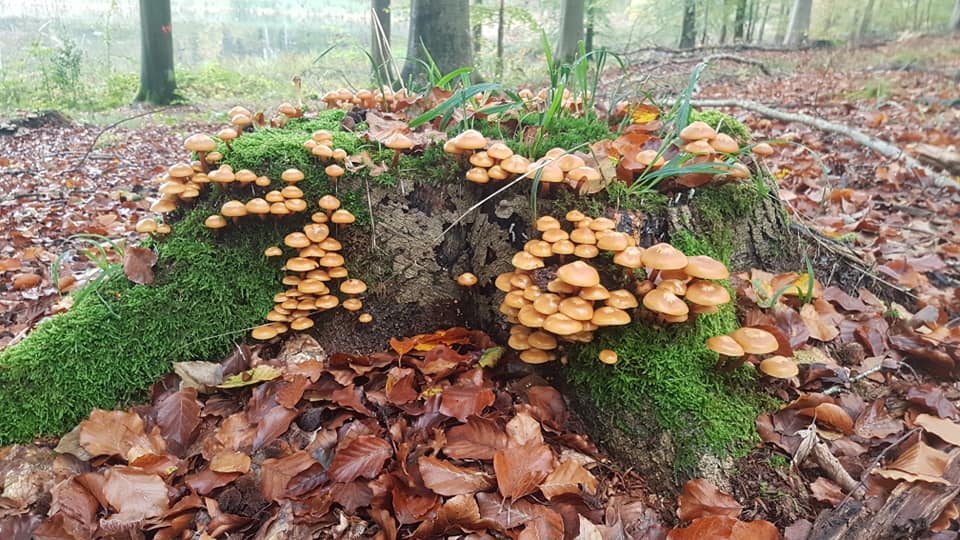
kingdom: Fungi
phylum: Basidiomycota
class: Agaricomycetes
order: Agaricales
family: Strophariaceae
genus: Kuehneromyces
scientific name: Kuehneromyces mutabilis
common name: foranderlig skælhat
